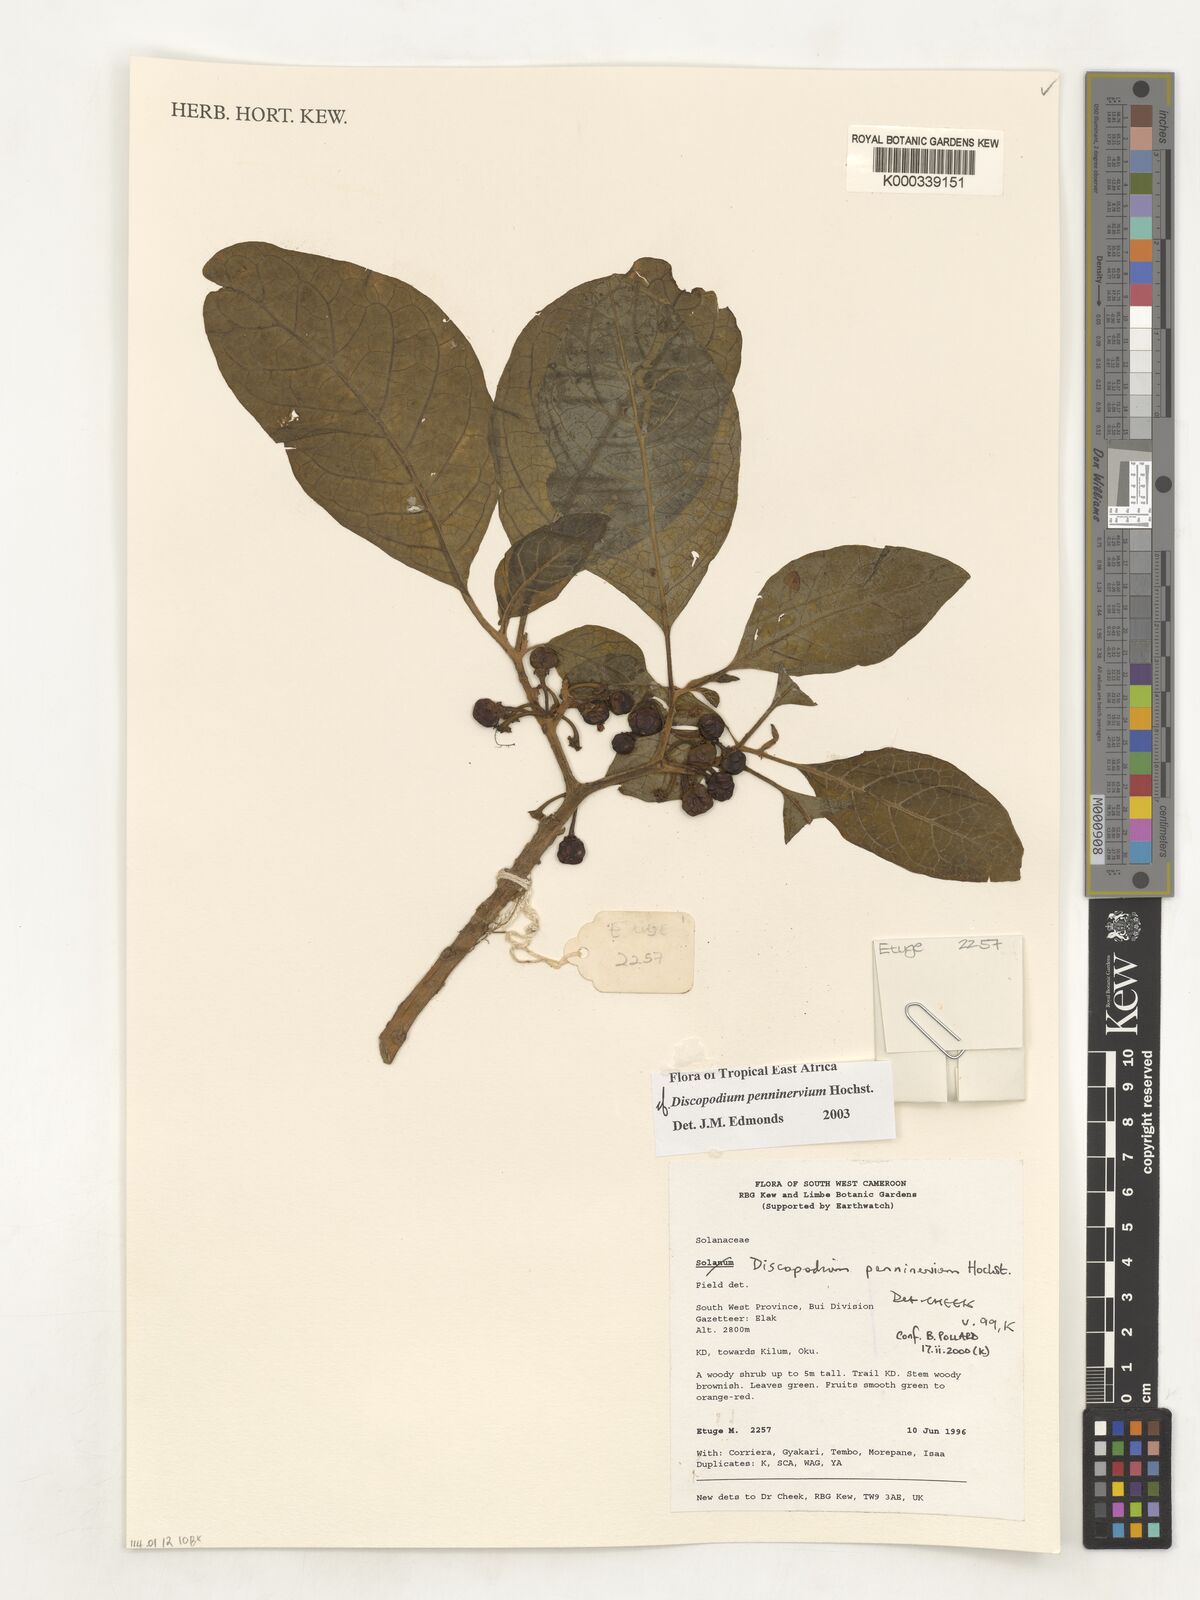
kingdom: Plantae
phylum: Tracheophyta
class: Magnoliopsida
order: Solanales
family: Solanaceae
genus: Discopodium
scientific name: Discopodium penninervium
